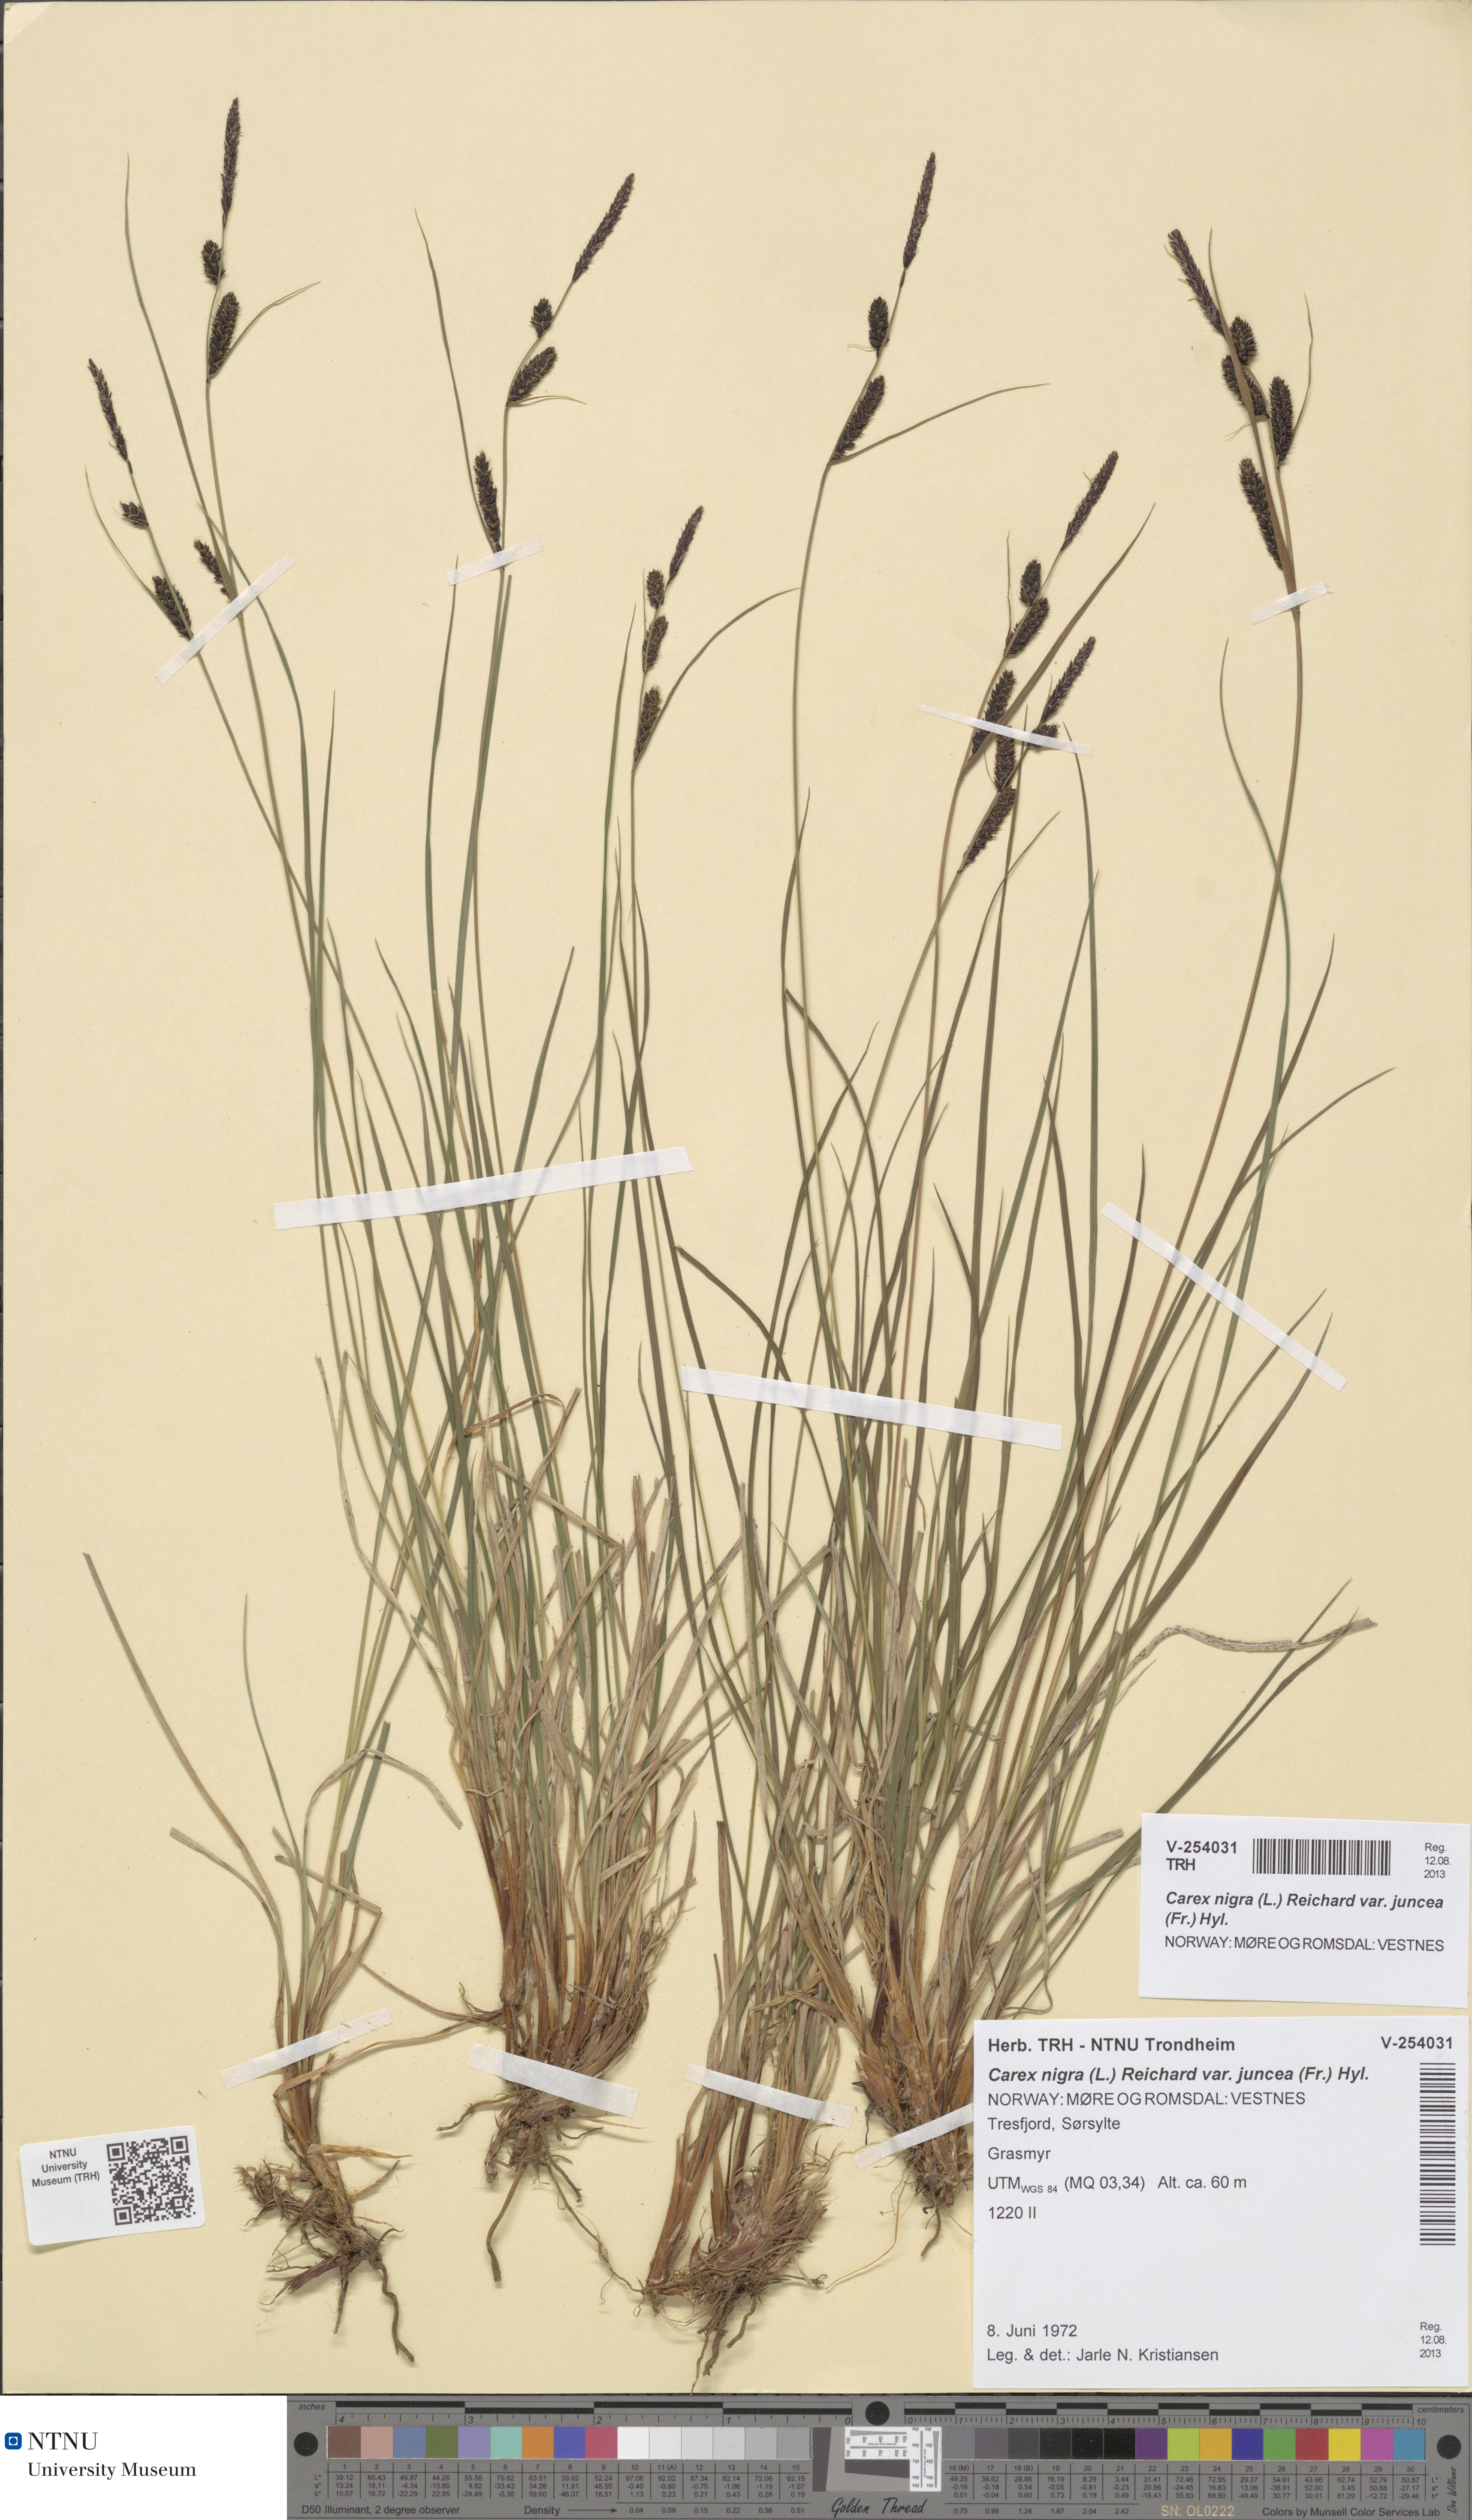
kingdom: Plantae
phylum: Tracheophyta
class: Liliopsida
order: Poales
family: Cyperaceae
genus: Carex
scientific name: Carex nigra
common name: Common sedge
